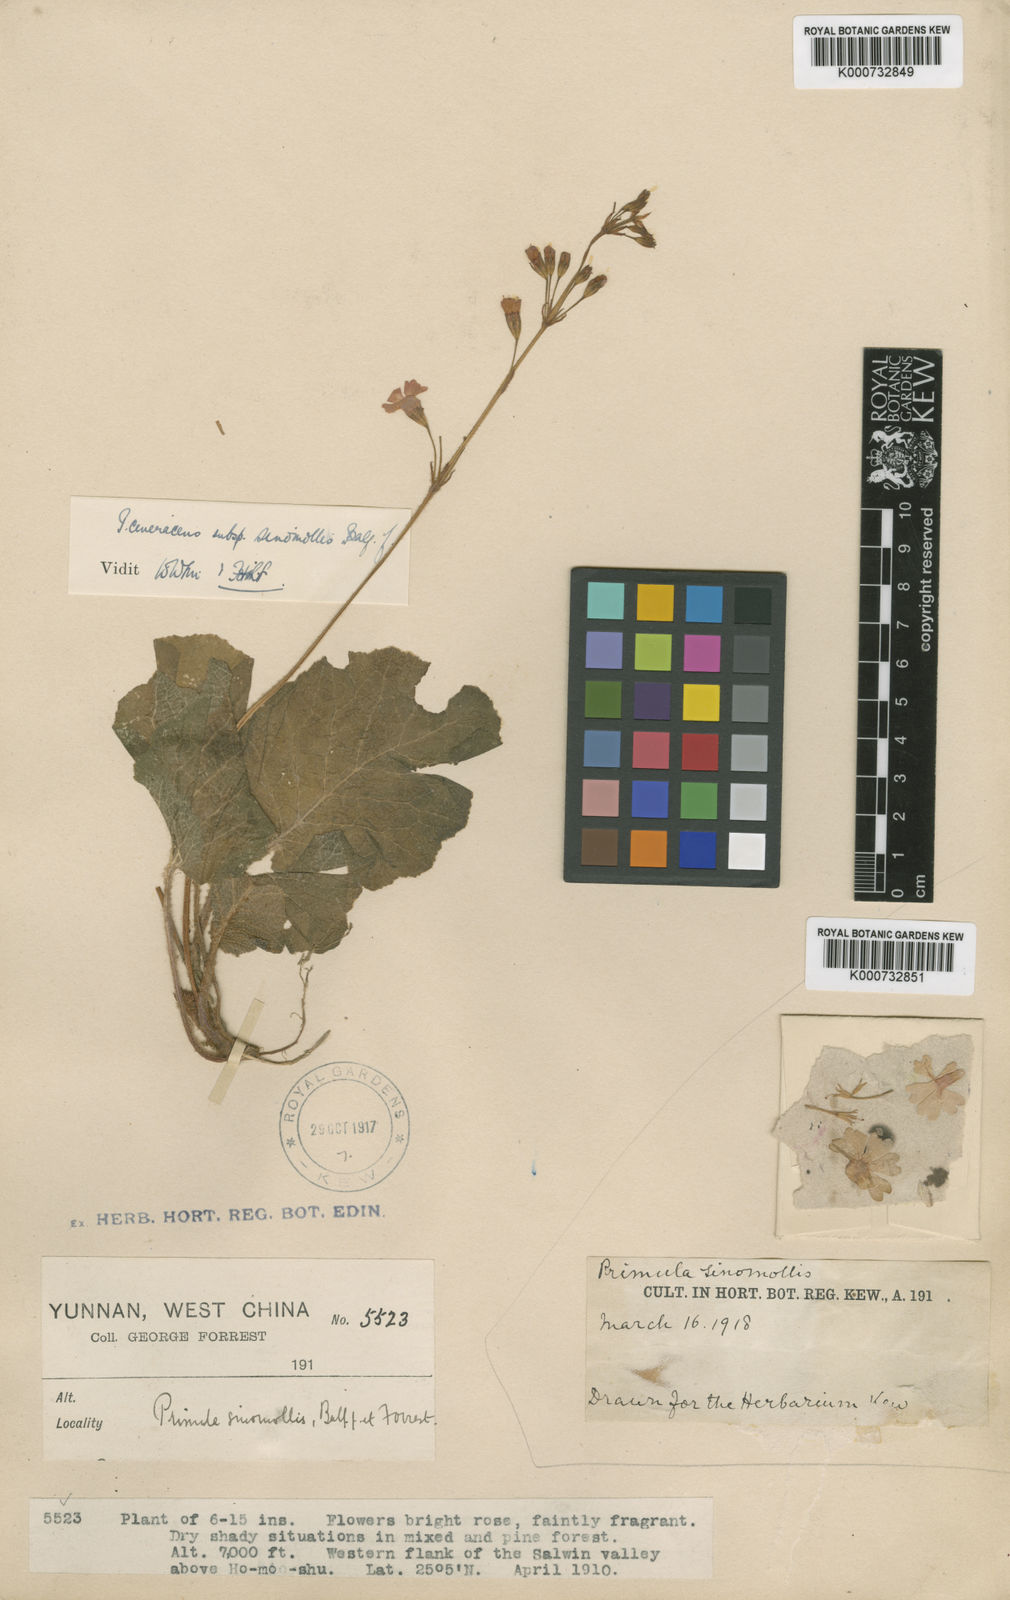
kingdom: Plantae
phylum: Tracheophyta
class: Magnoliopsida
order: Ericales
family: Primulaceae
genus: Primula
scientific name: Primula cinerascens
